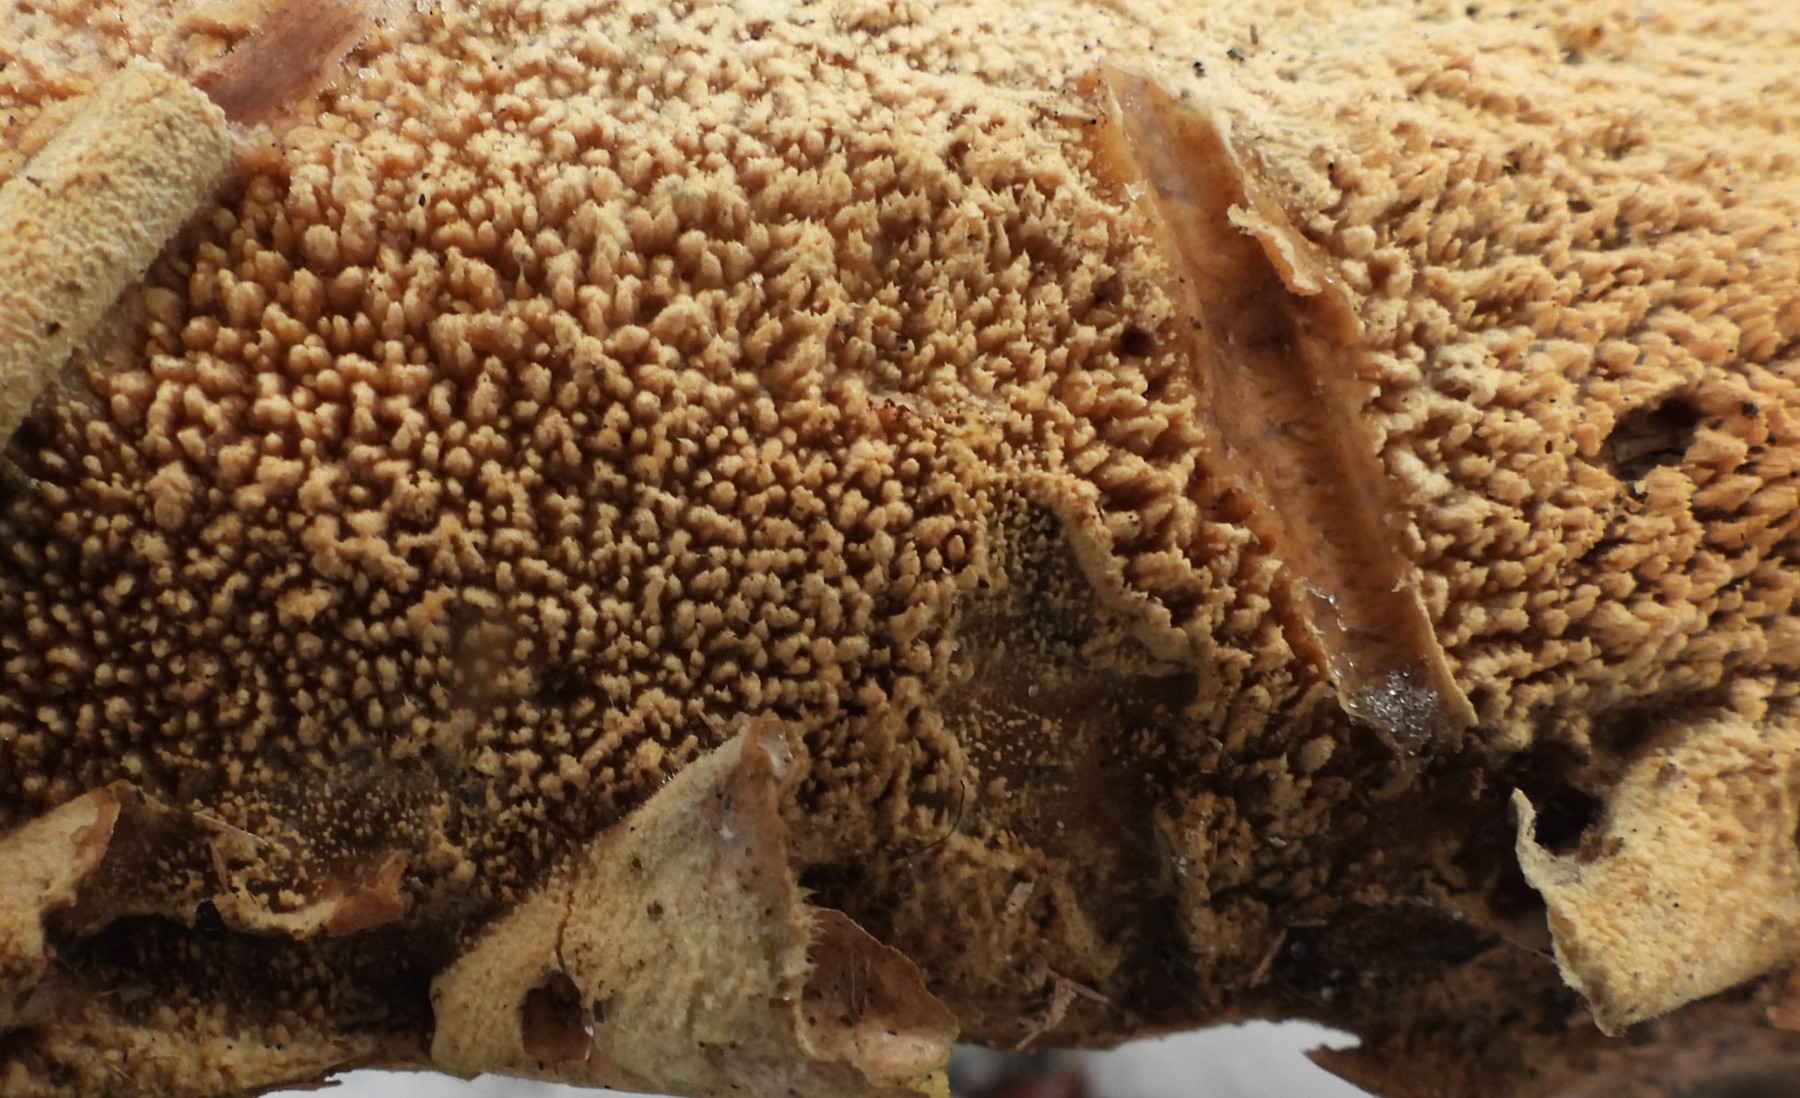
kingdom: Fungi
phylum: Basidiomycota
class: Agaricomycetes
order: Hymenochaetales
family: Hyphodontiaceae
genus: Hyphodontia
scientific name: Hyphodontia barba-jovis
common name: skægget tandsvamp
